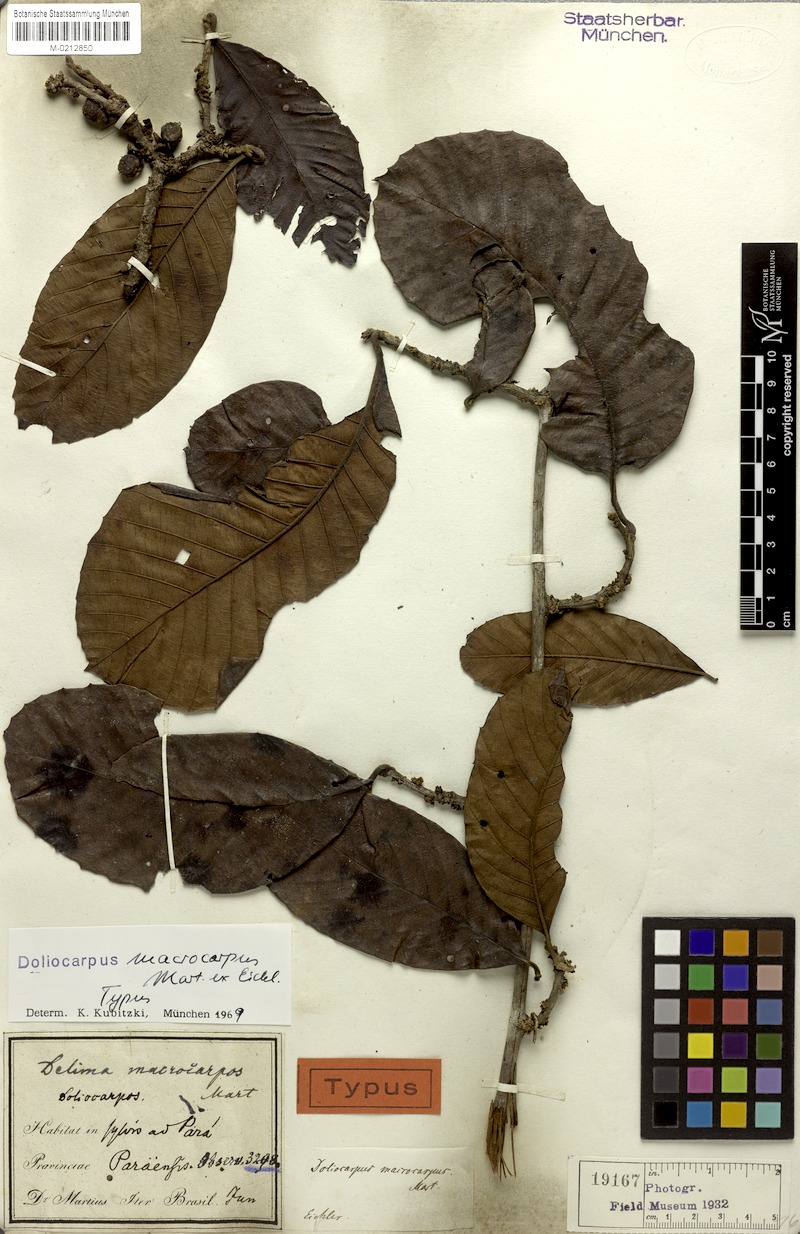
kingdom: Plantae
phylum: Tracheophyta
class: Magnoliopsida
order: Dilleniales
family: Dilleniaceae
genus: Doliocarpus
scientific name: Doliocarpus macrocarpus
